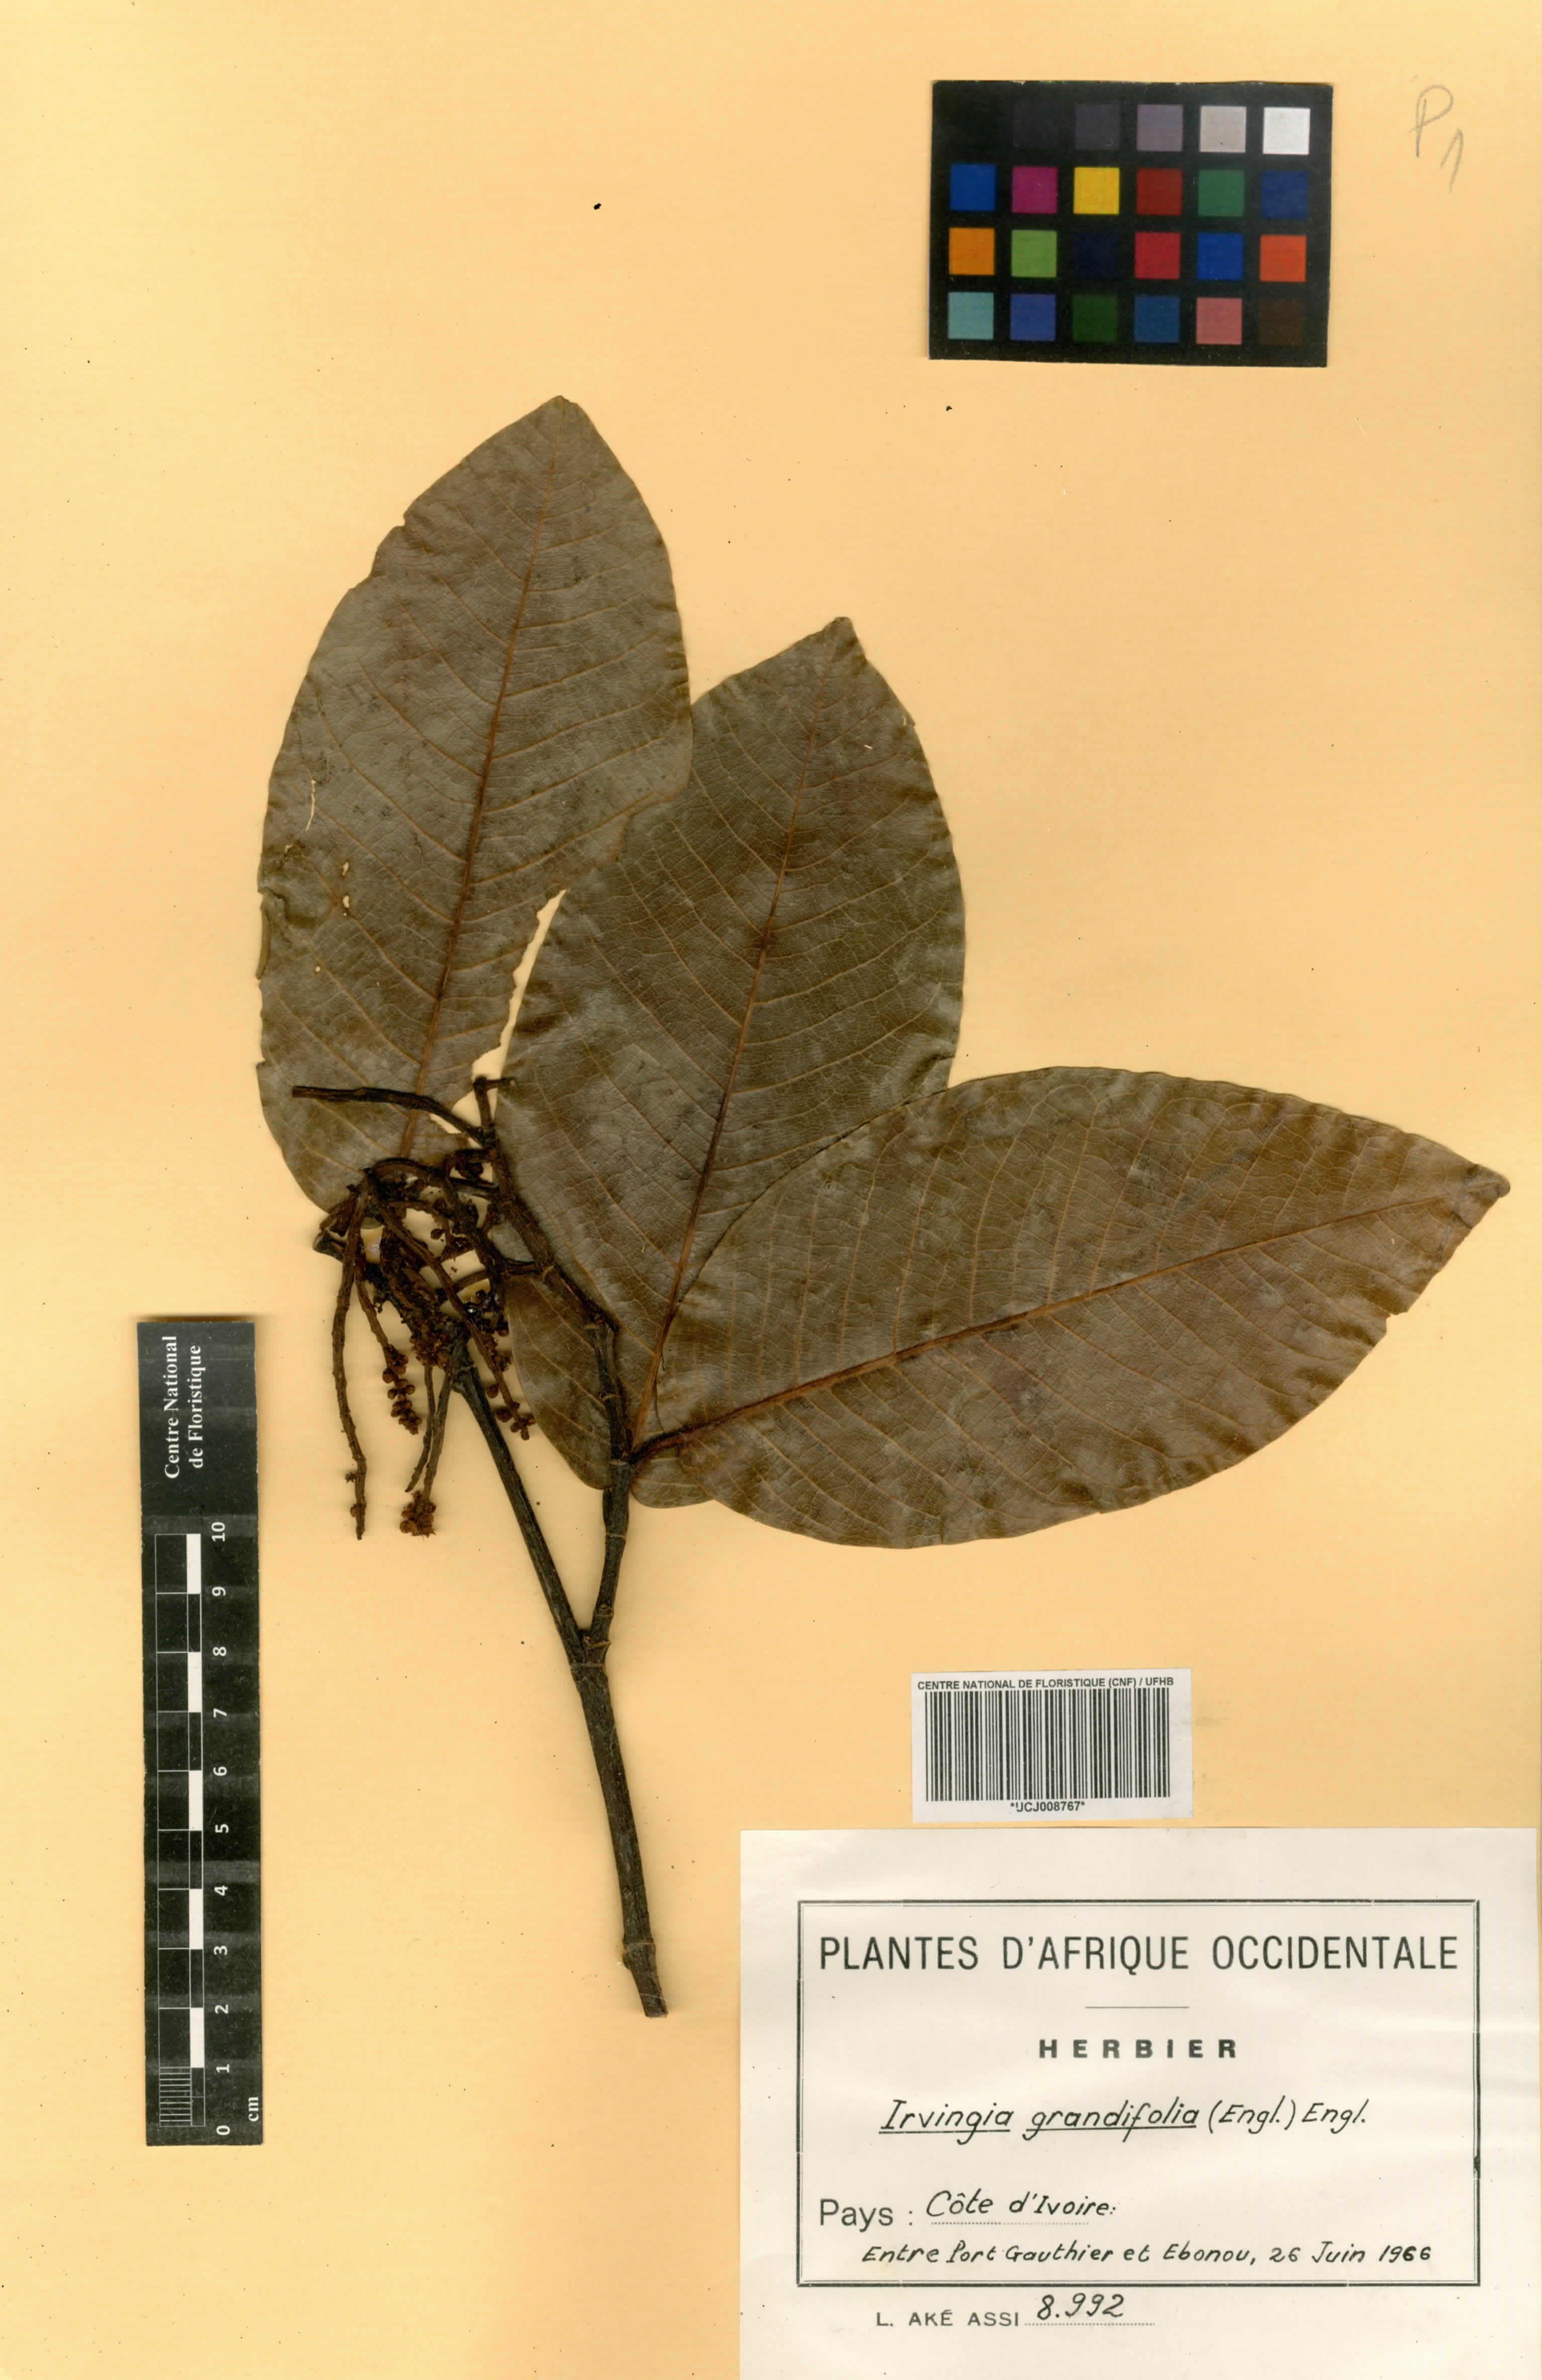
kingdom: Plantae
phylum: Tracheophyta
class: Magnoliopsida
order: Malpighiales
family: Irvingiaceae
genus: Irvingia
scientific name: Irvingia grandifolia
